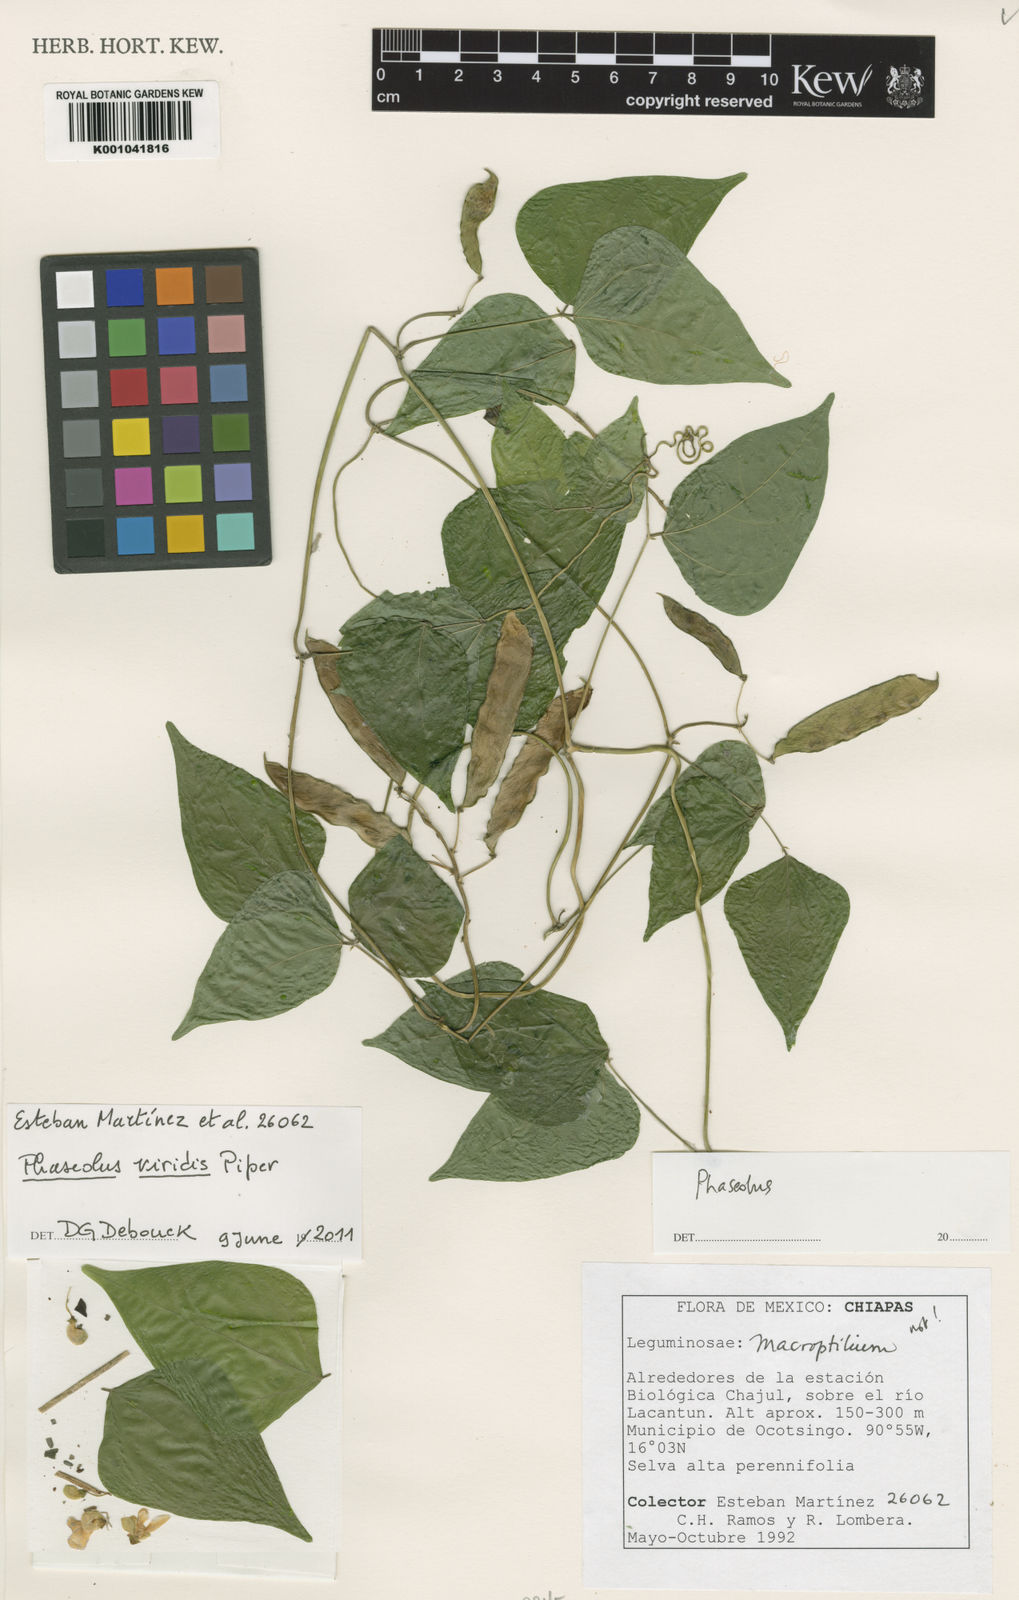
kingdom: Plantae
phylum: Tracheophyta
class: Magnoliopsida
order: Fabales
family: Fabaceae
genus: Phaseolus
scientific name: Phaseolus viridis
